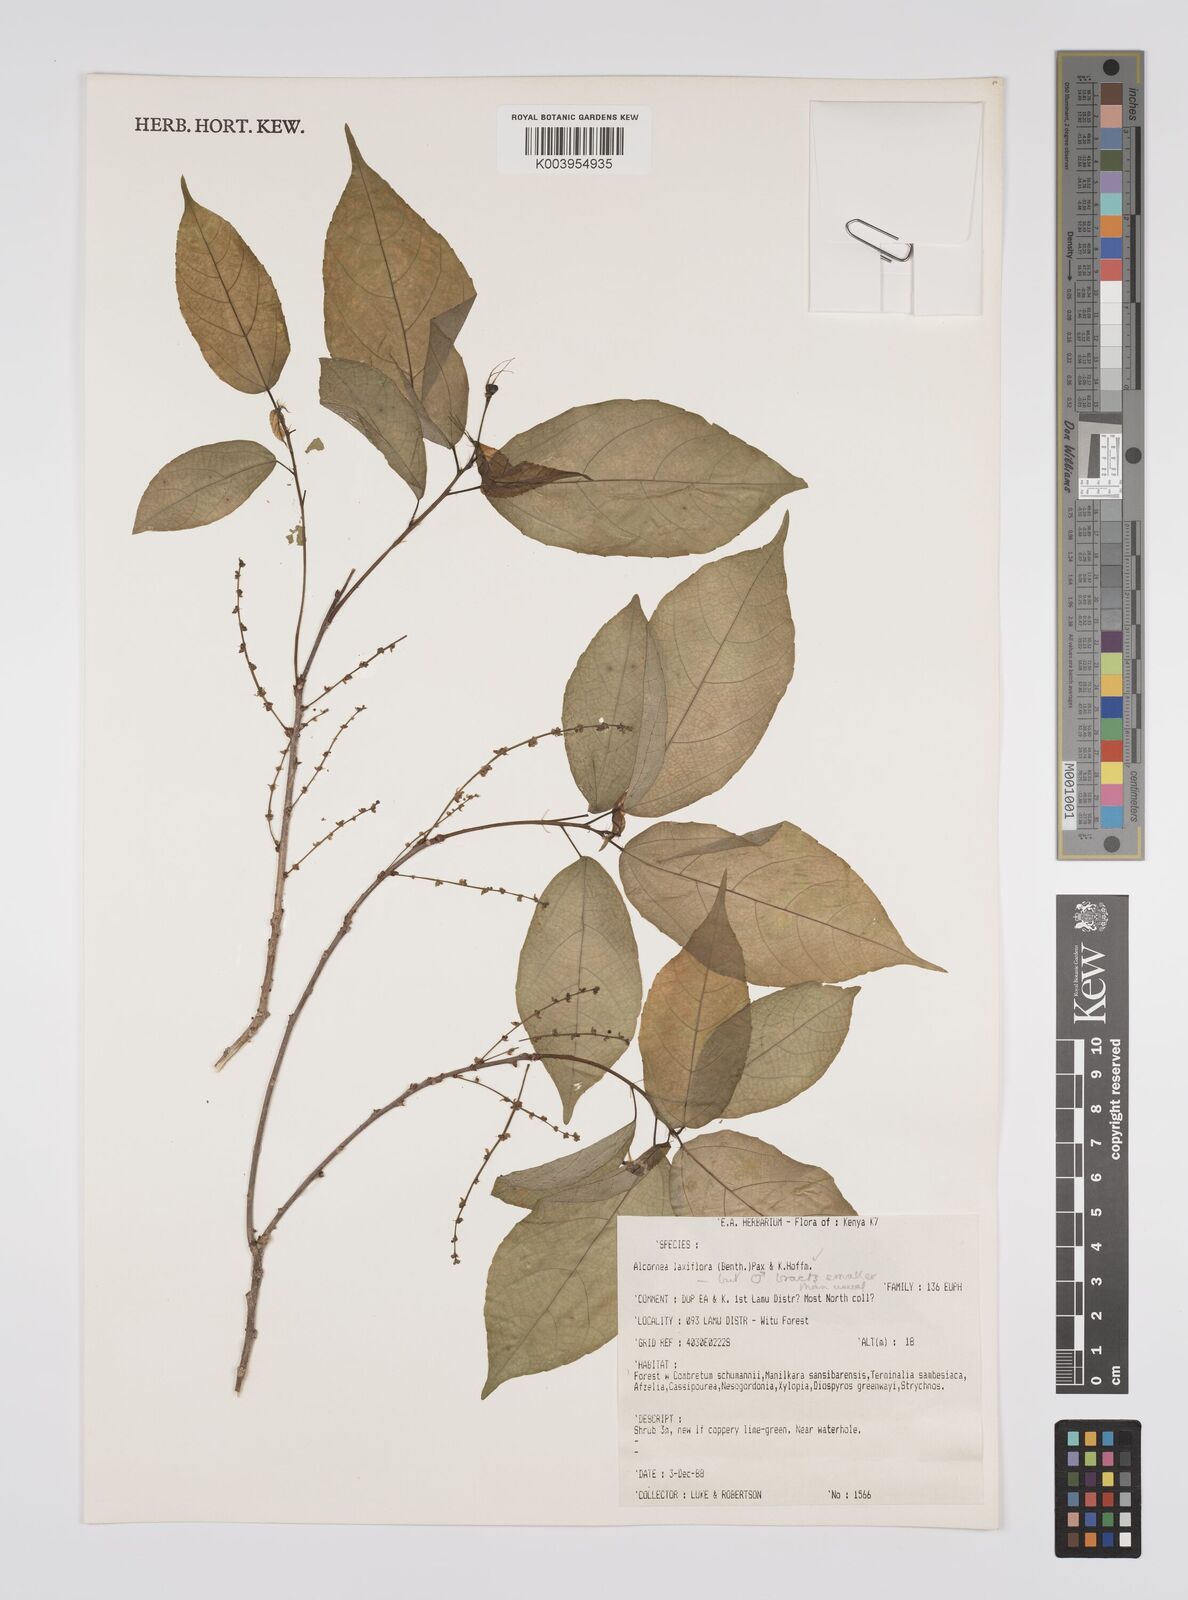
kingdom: Plantae
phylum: Tracheophyta
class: Magnoliopsida
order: Malpighiales
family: Euphorbiaceae
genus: Alchornea
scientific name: Alchornea laxiflora
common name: Lowveld bead-string
